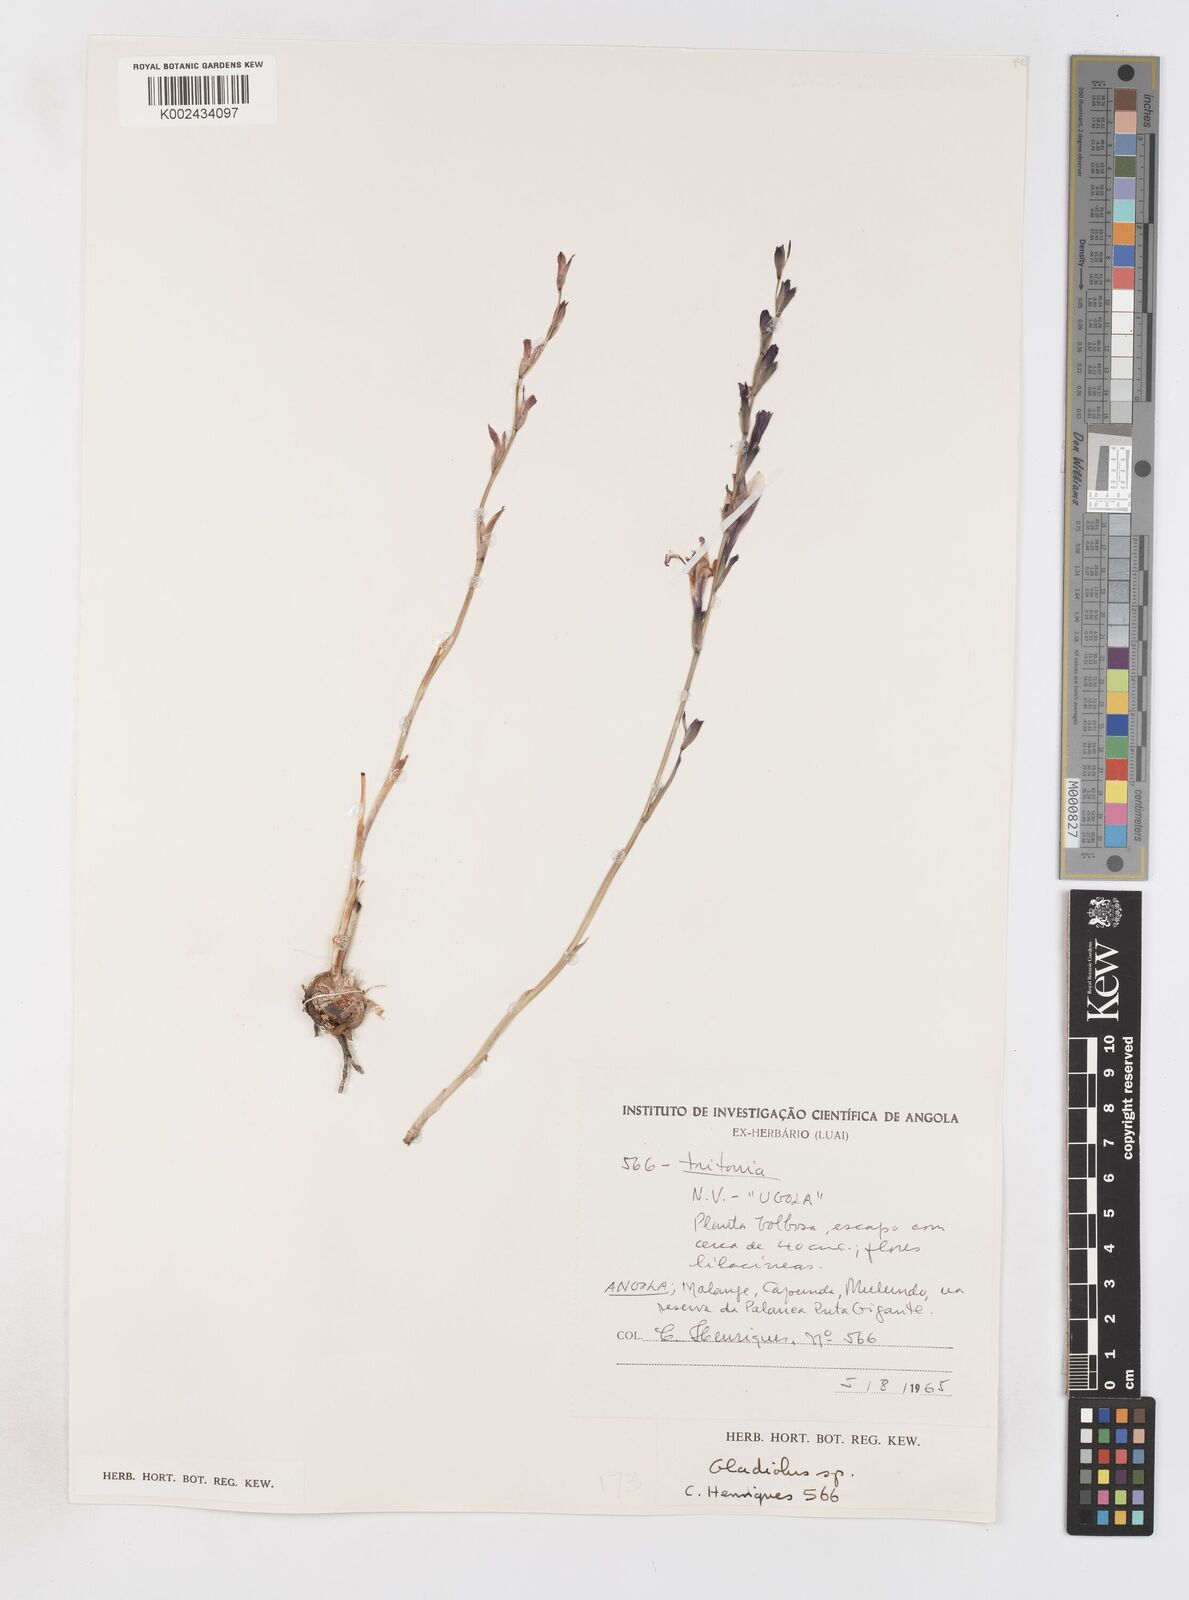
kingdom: Plantae
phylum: Tracheophyta
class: Liliopsida
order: Asparagales
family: Iridaceae
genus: Gladiolus
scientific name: Gladiolus atropurpureus
